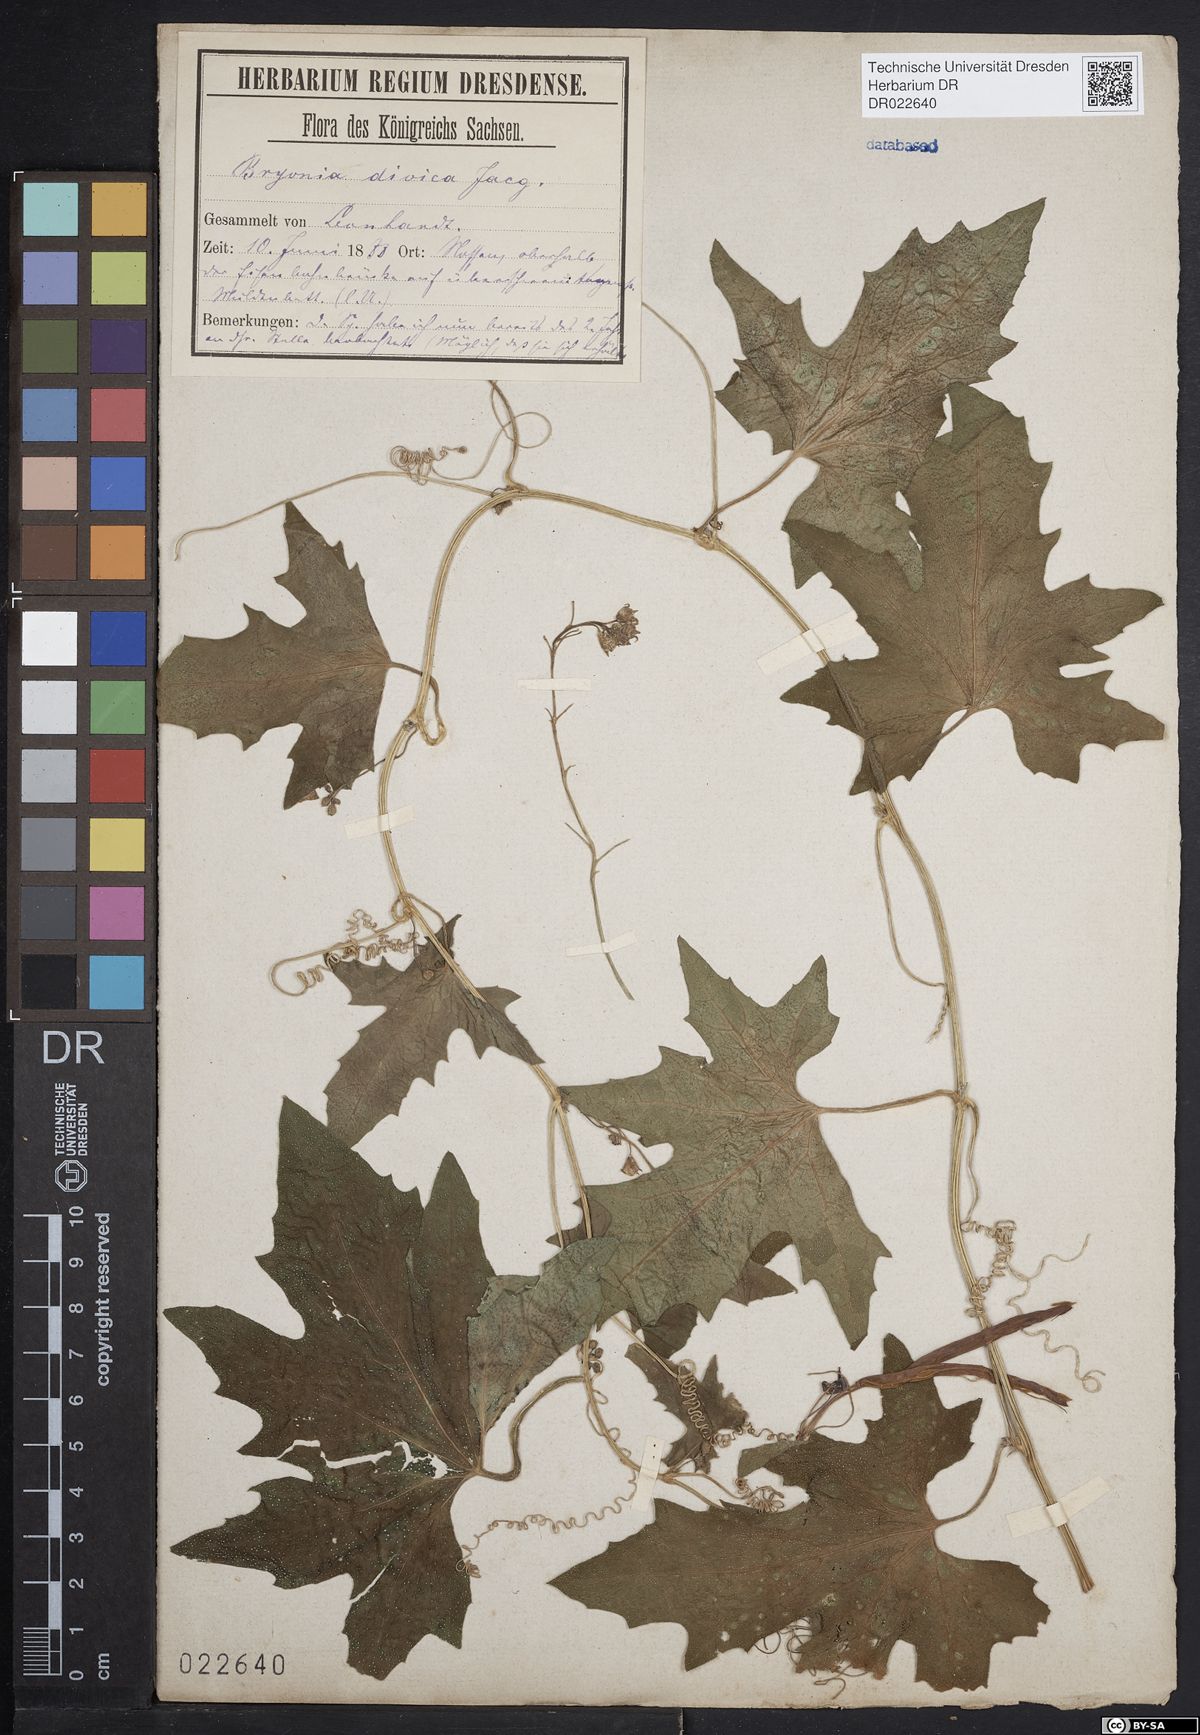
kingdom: Plantae
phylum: Tracheophyta
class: Magnoliopsida
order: Cucurbitales
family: Cucurbitaceae
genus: Bryonia
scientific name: Bryonia dioica
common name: White bryony
